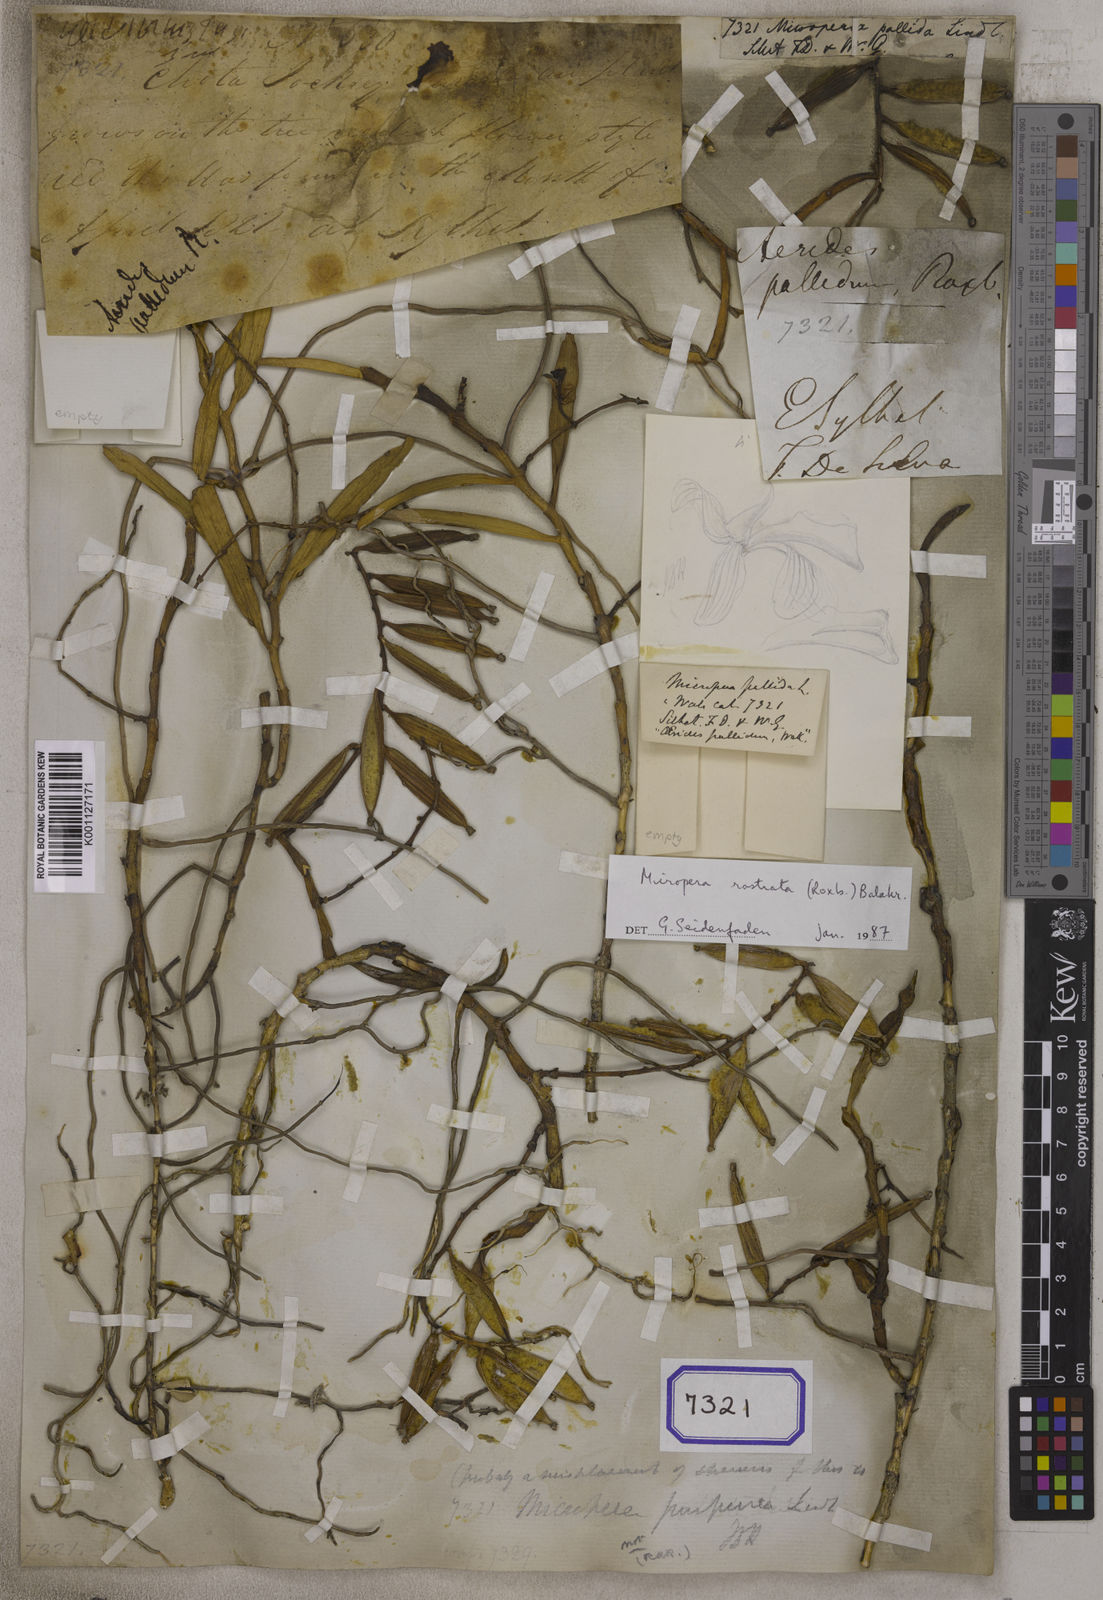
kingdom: Plantae
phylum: Tracheophyta
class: Liliopsida
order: Asparagales
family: Orchidaceae
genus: Micropera
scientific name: Micropera pallida
